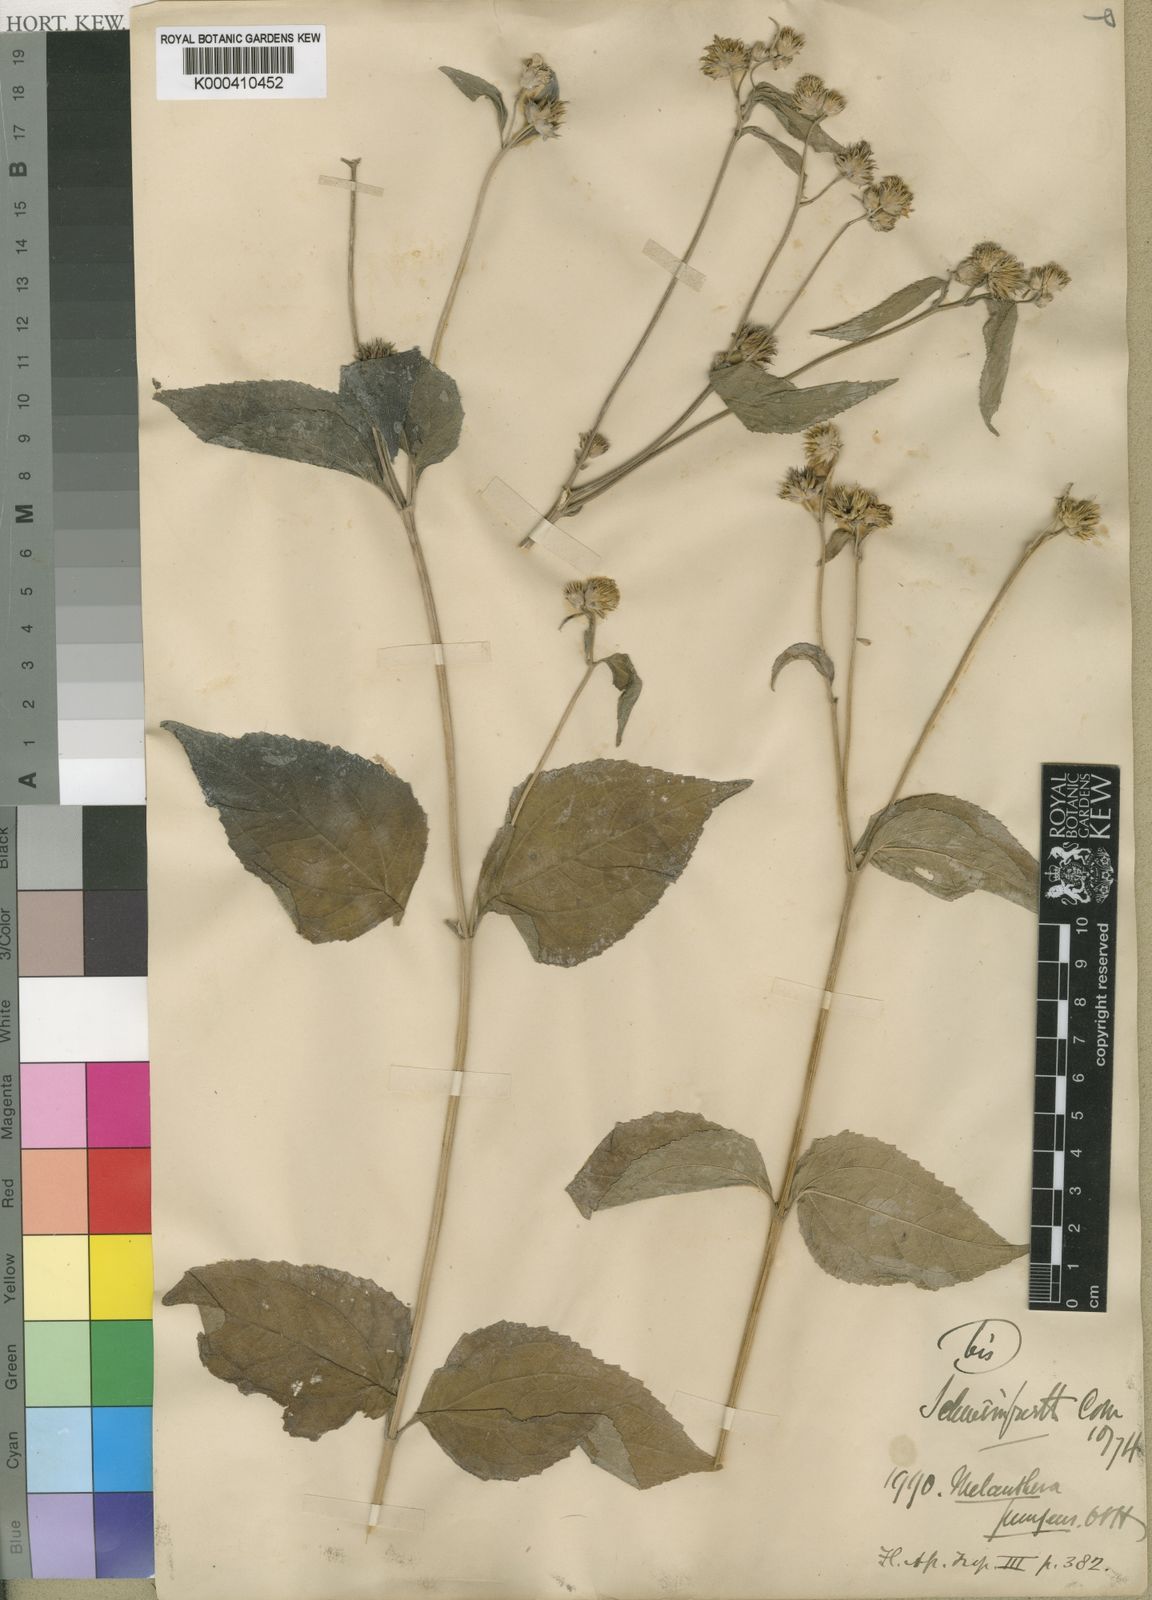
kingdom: Plantae
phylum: Tracheophyta
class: Magnoliopsida
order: Asterales
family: Asteraceae
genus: Lipotriche
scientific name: Lipotriche pungens
